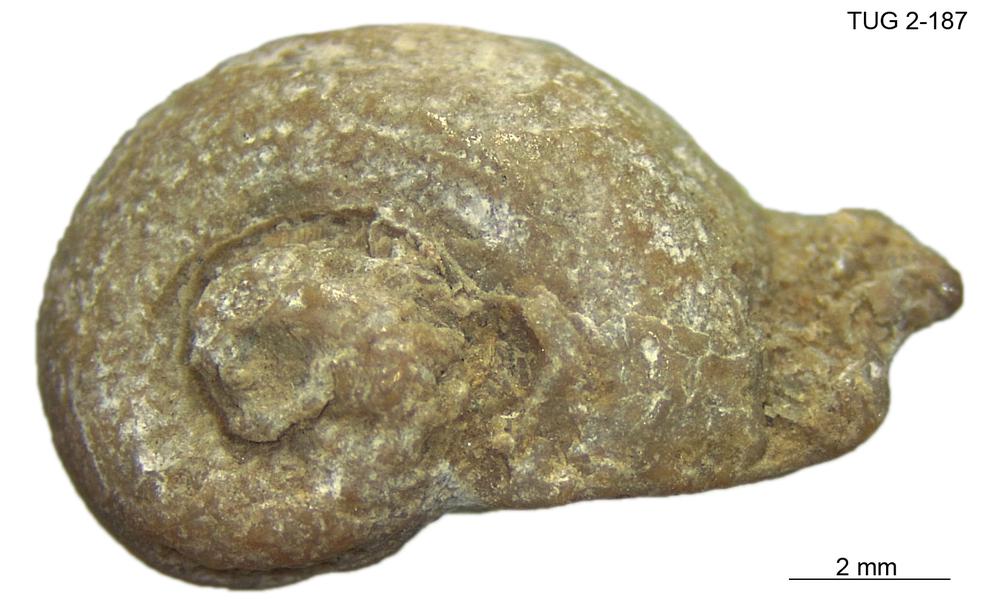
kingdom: Animalia
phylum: Mollusca
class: Gastropoda
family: Euomphalidae
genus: Poleumita
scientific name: Poleumita
